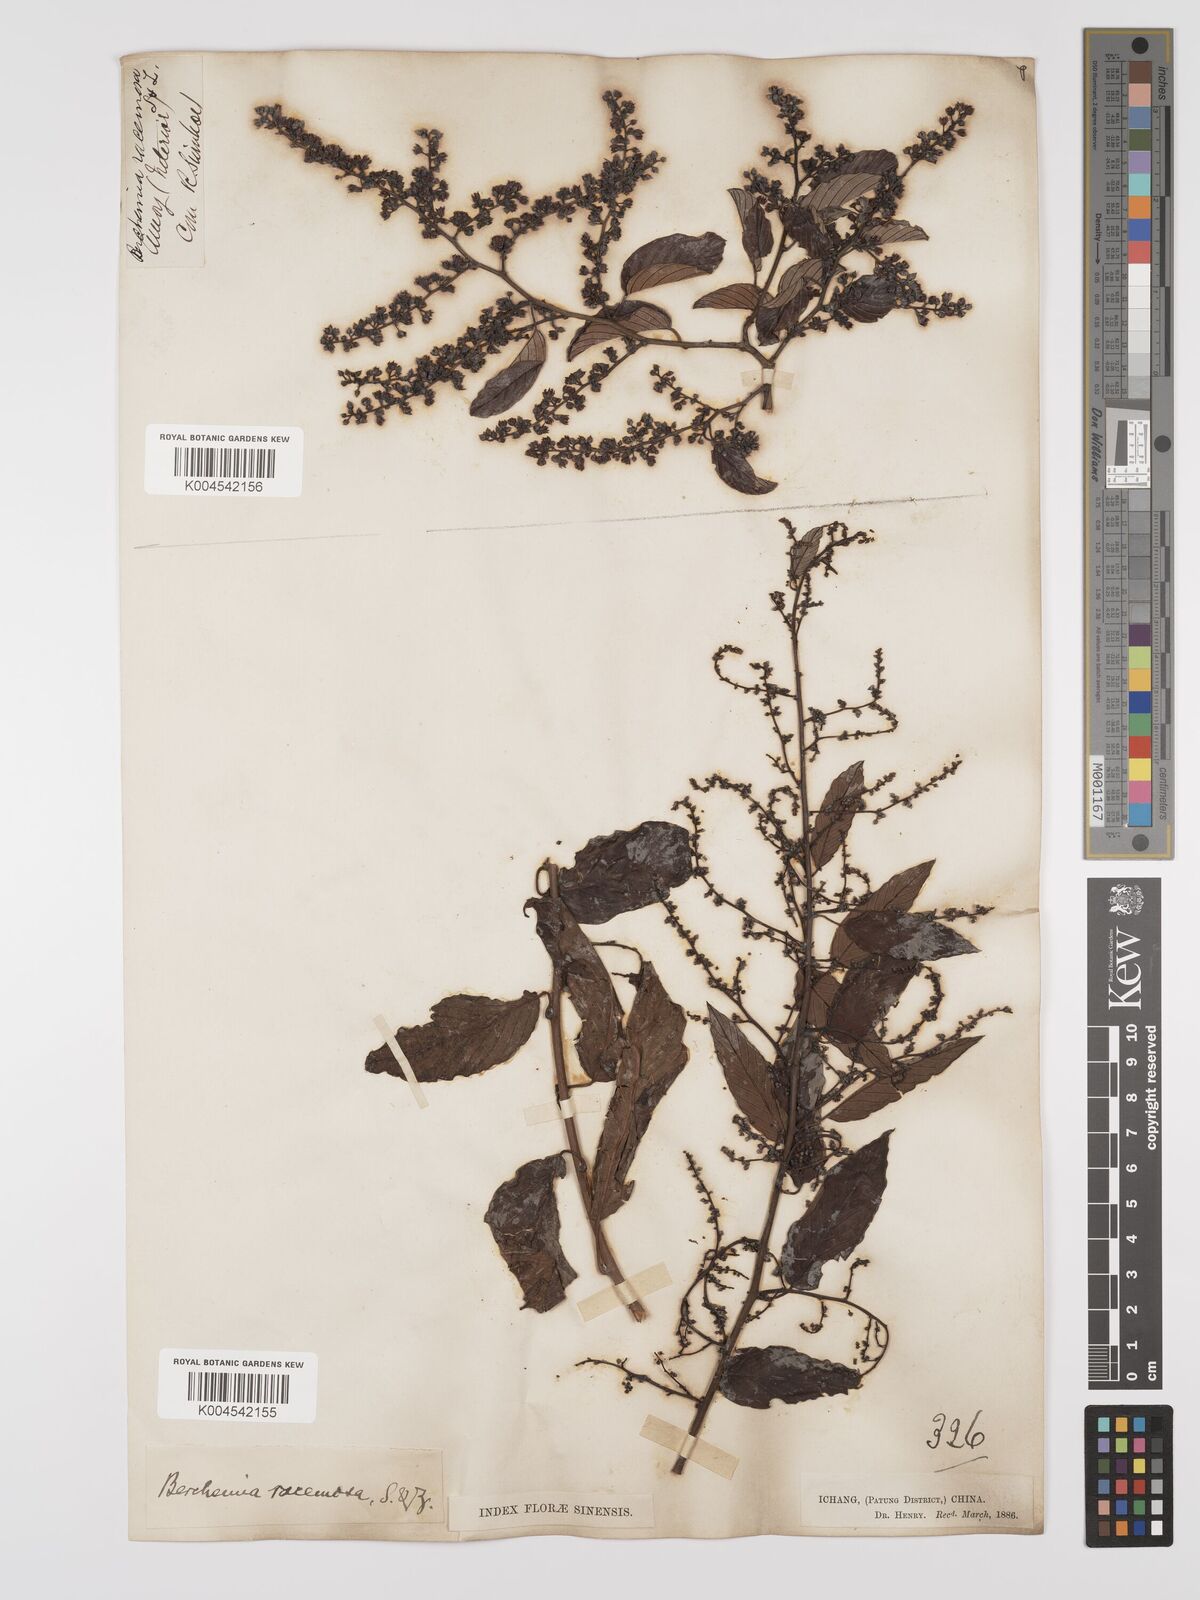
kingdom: Plantae
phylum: Tracheophyta
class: Magnoliopsida
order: Rosales
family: Rhamnaceae
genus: Berchemia
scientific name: Berchemia floribunda
